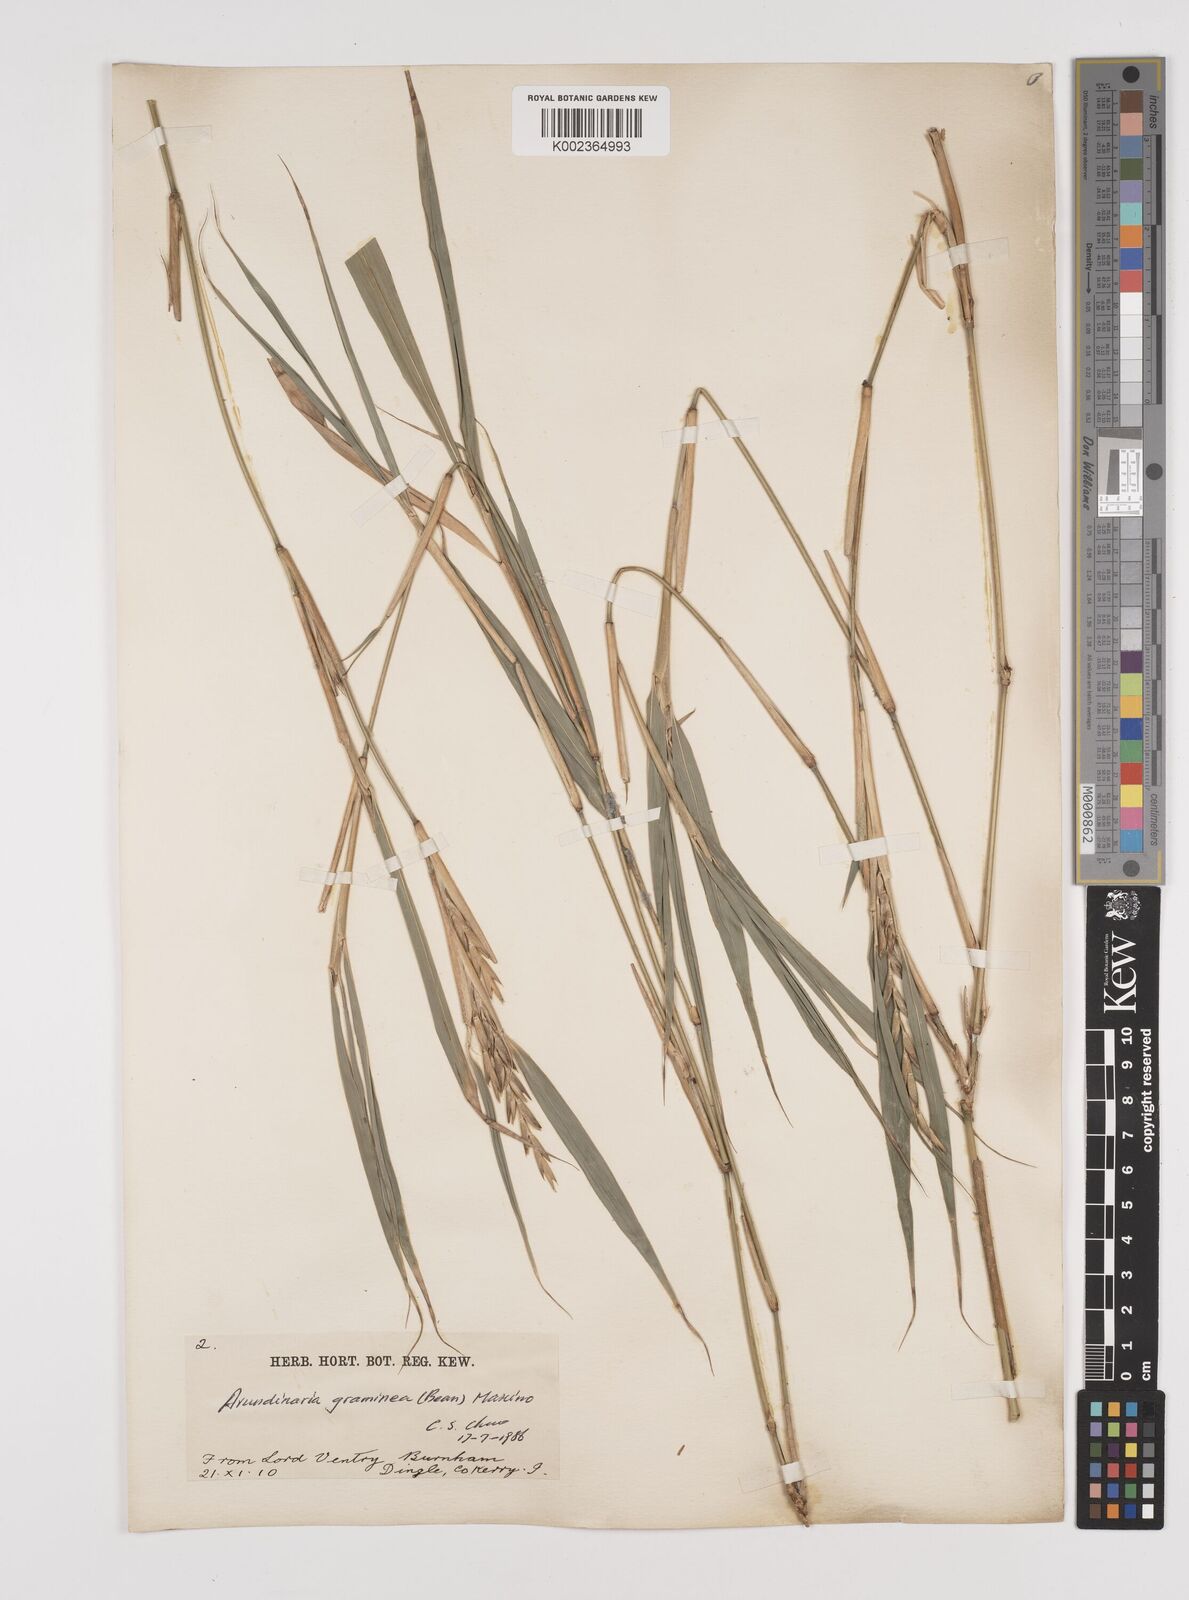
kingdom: Plantae
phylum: Tracheophyta
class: Liliopsida
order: Poales
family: Poaceae
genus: Pleioblastus
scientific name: Pleioblastus gramineus
